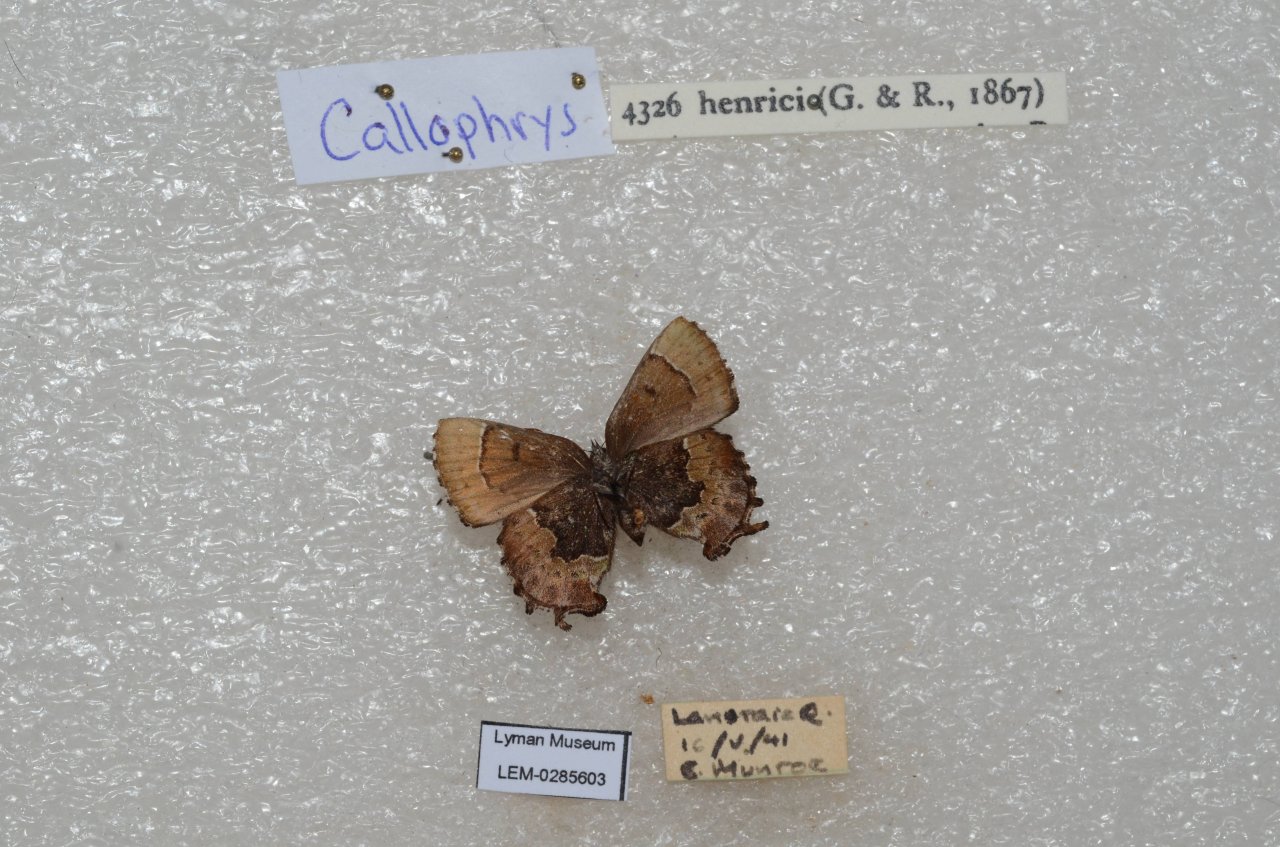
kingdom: Animalia
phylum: Arthropoda
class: Insecta
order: Lepidoptera
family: Lycaenidae
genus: Incisalia
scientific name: Incisalia henrici
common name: Henry's Elfin
